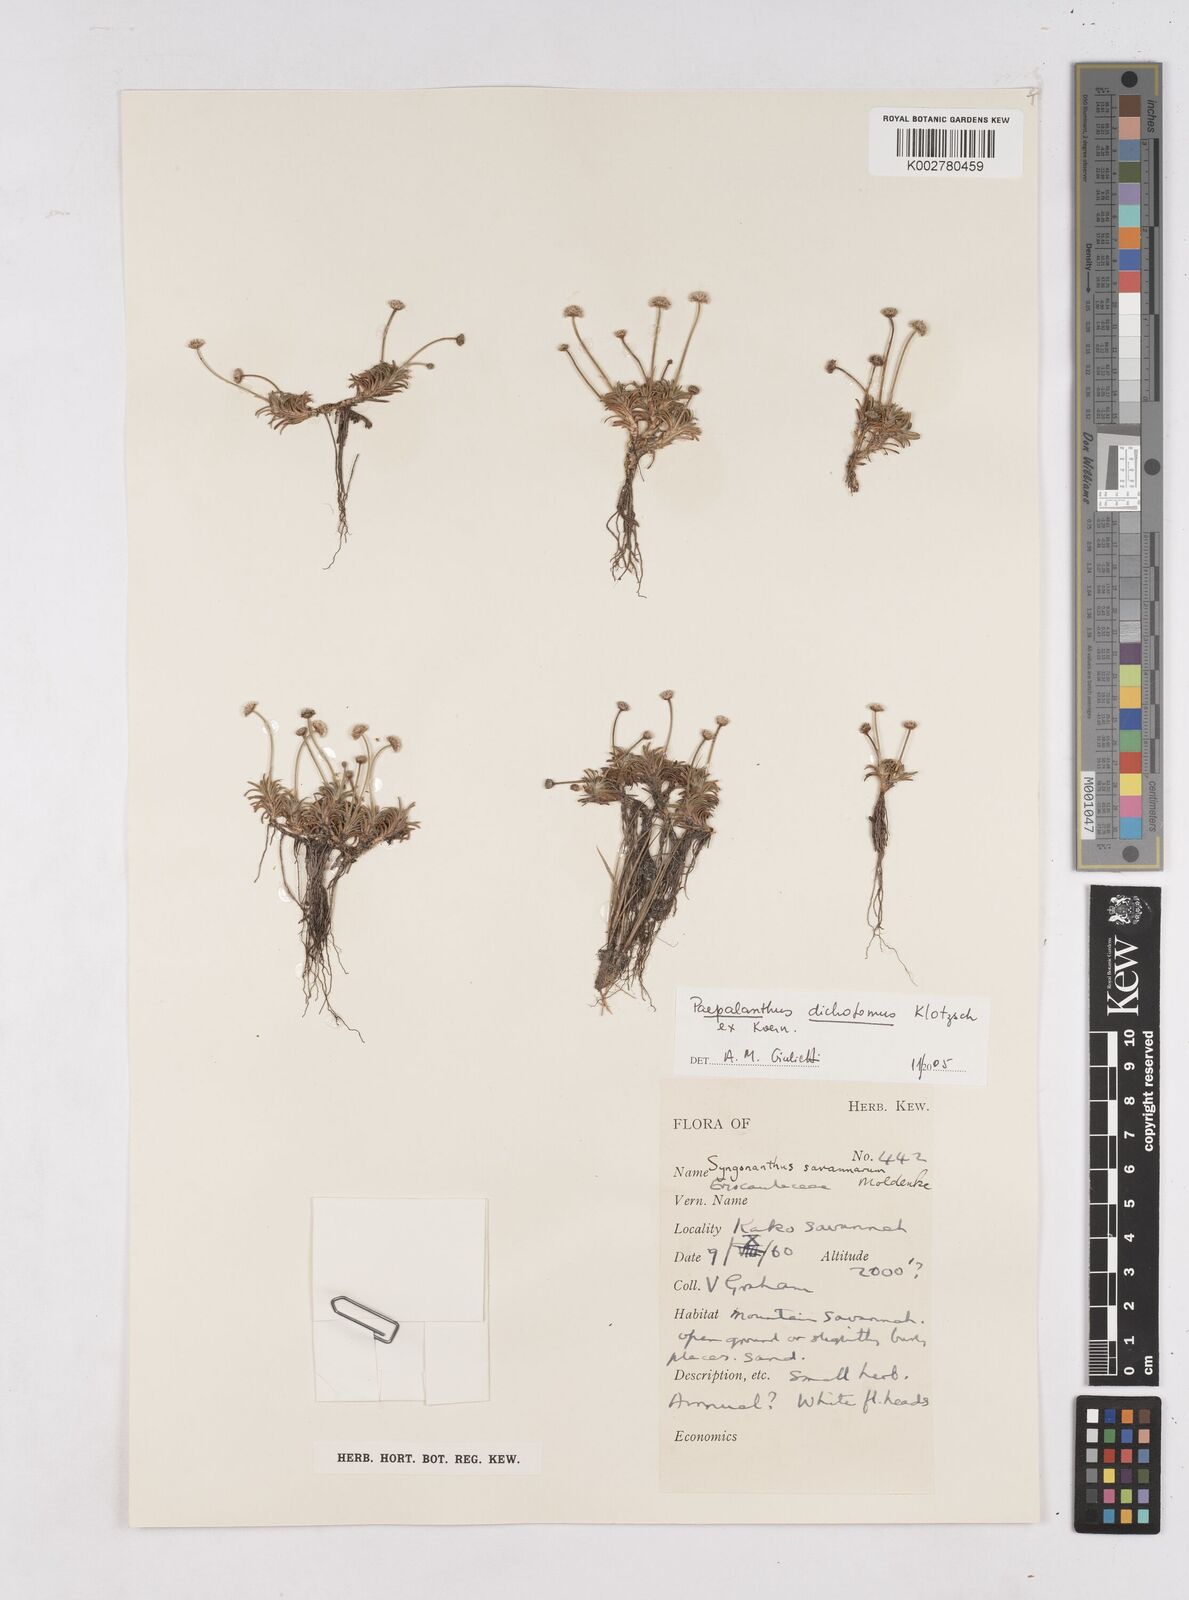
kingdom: Plantae
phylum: Tracheophyta
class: Liliopsida
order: Poales
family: Eriocaulaceae
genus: Paepalanthus
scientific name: Paepalanthus dichotomus
